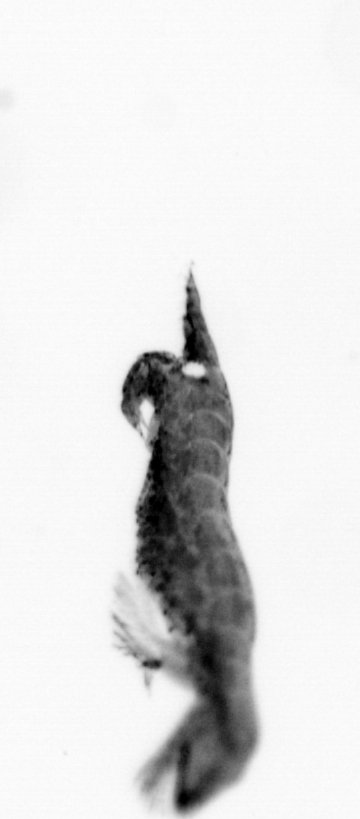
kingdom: Animalia
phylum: Annelida
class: Polychaeta
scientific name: Polychaeta
